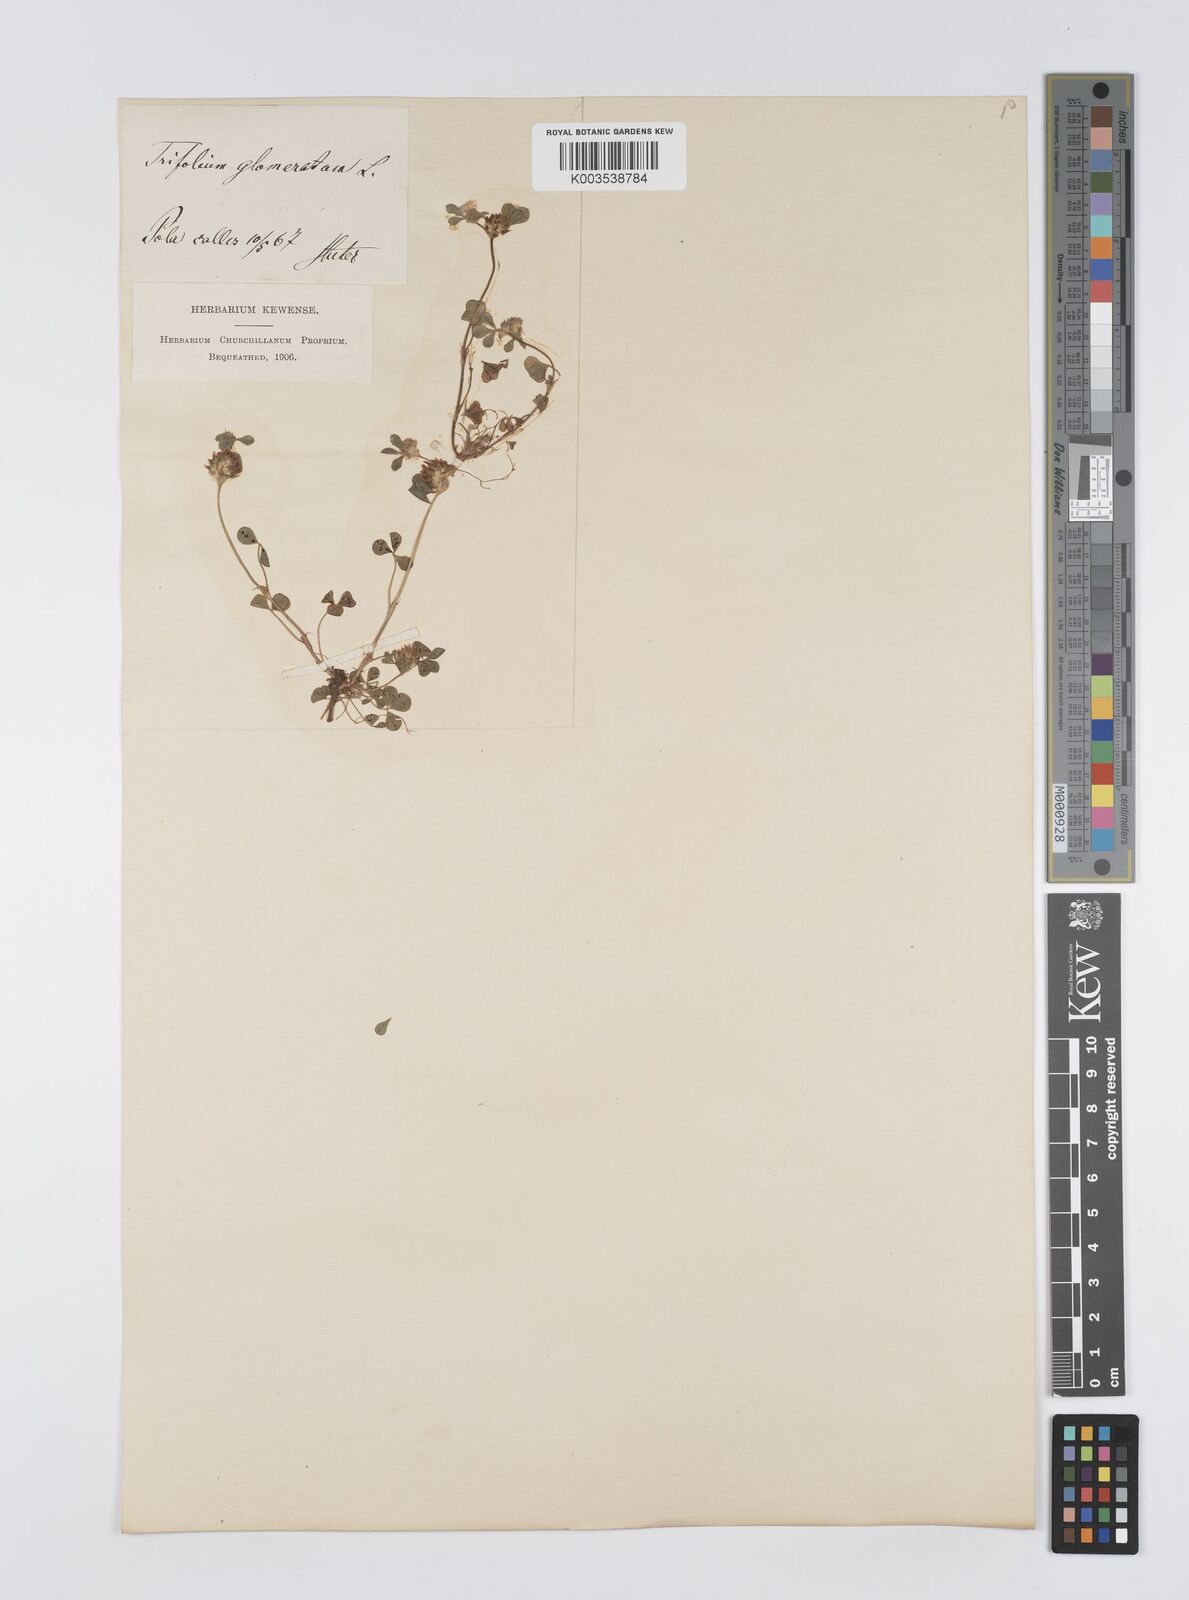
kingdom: Plantae
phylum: Tracheophyta
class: Magnoliopsida
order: Fabales
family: Fabaceae
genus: Trifolium
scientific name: Trifolium glomeratum
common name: Clustered clover
